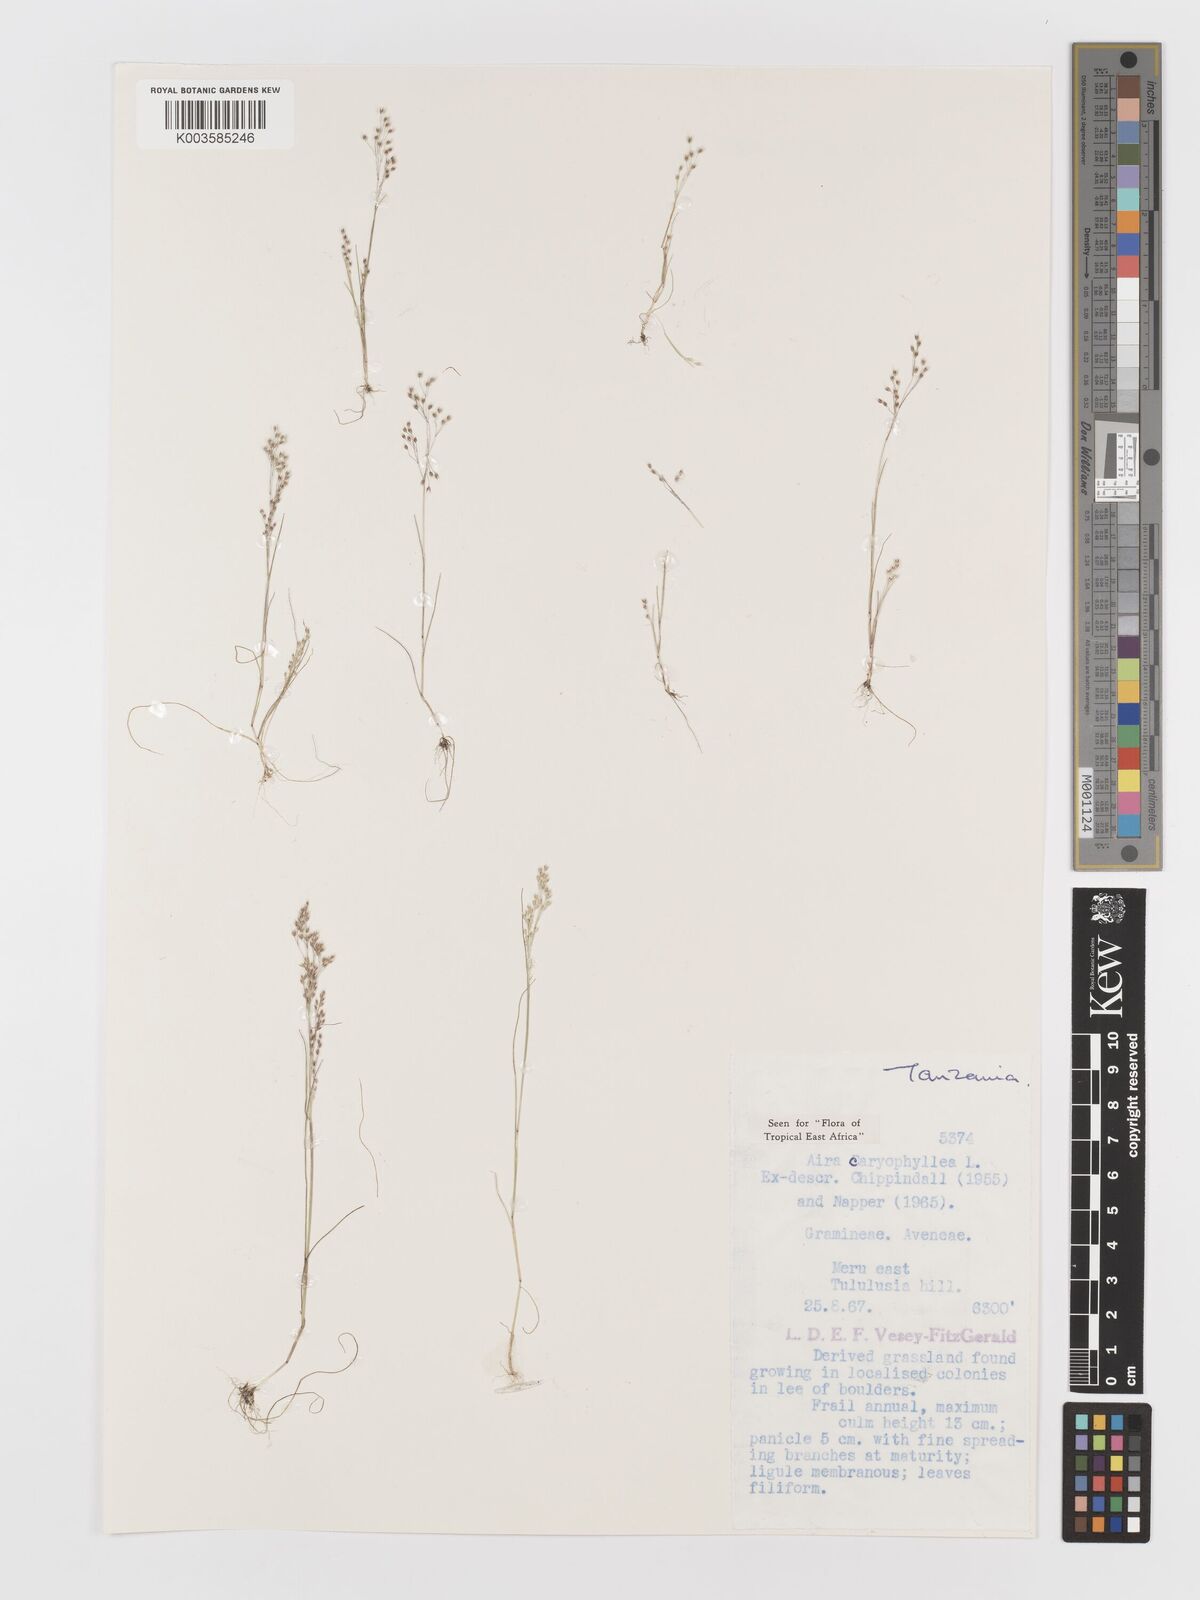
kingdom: Plantae
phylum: Tracheophyta
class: Liliopsida
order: Poales
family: Poaceae
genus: Aira
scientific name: Aira caryophyllea
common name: Silver hairgrass
